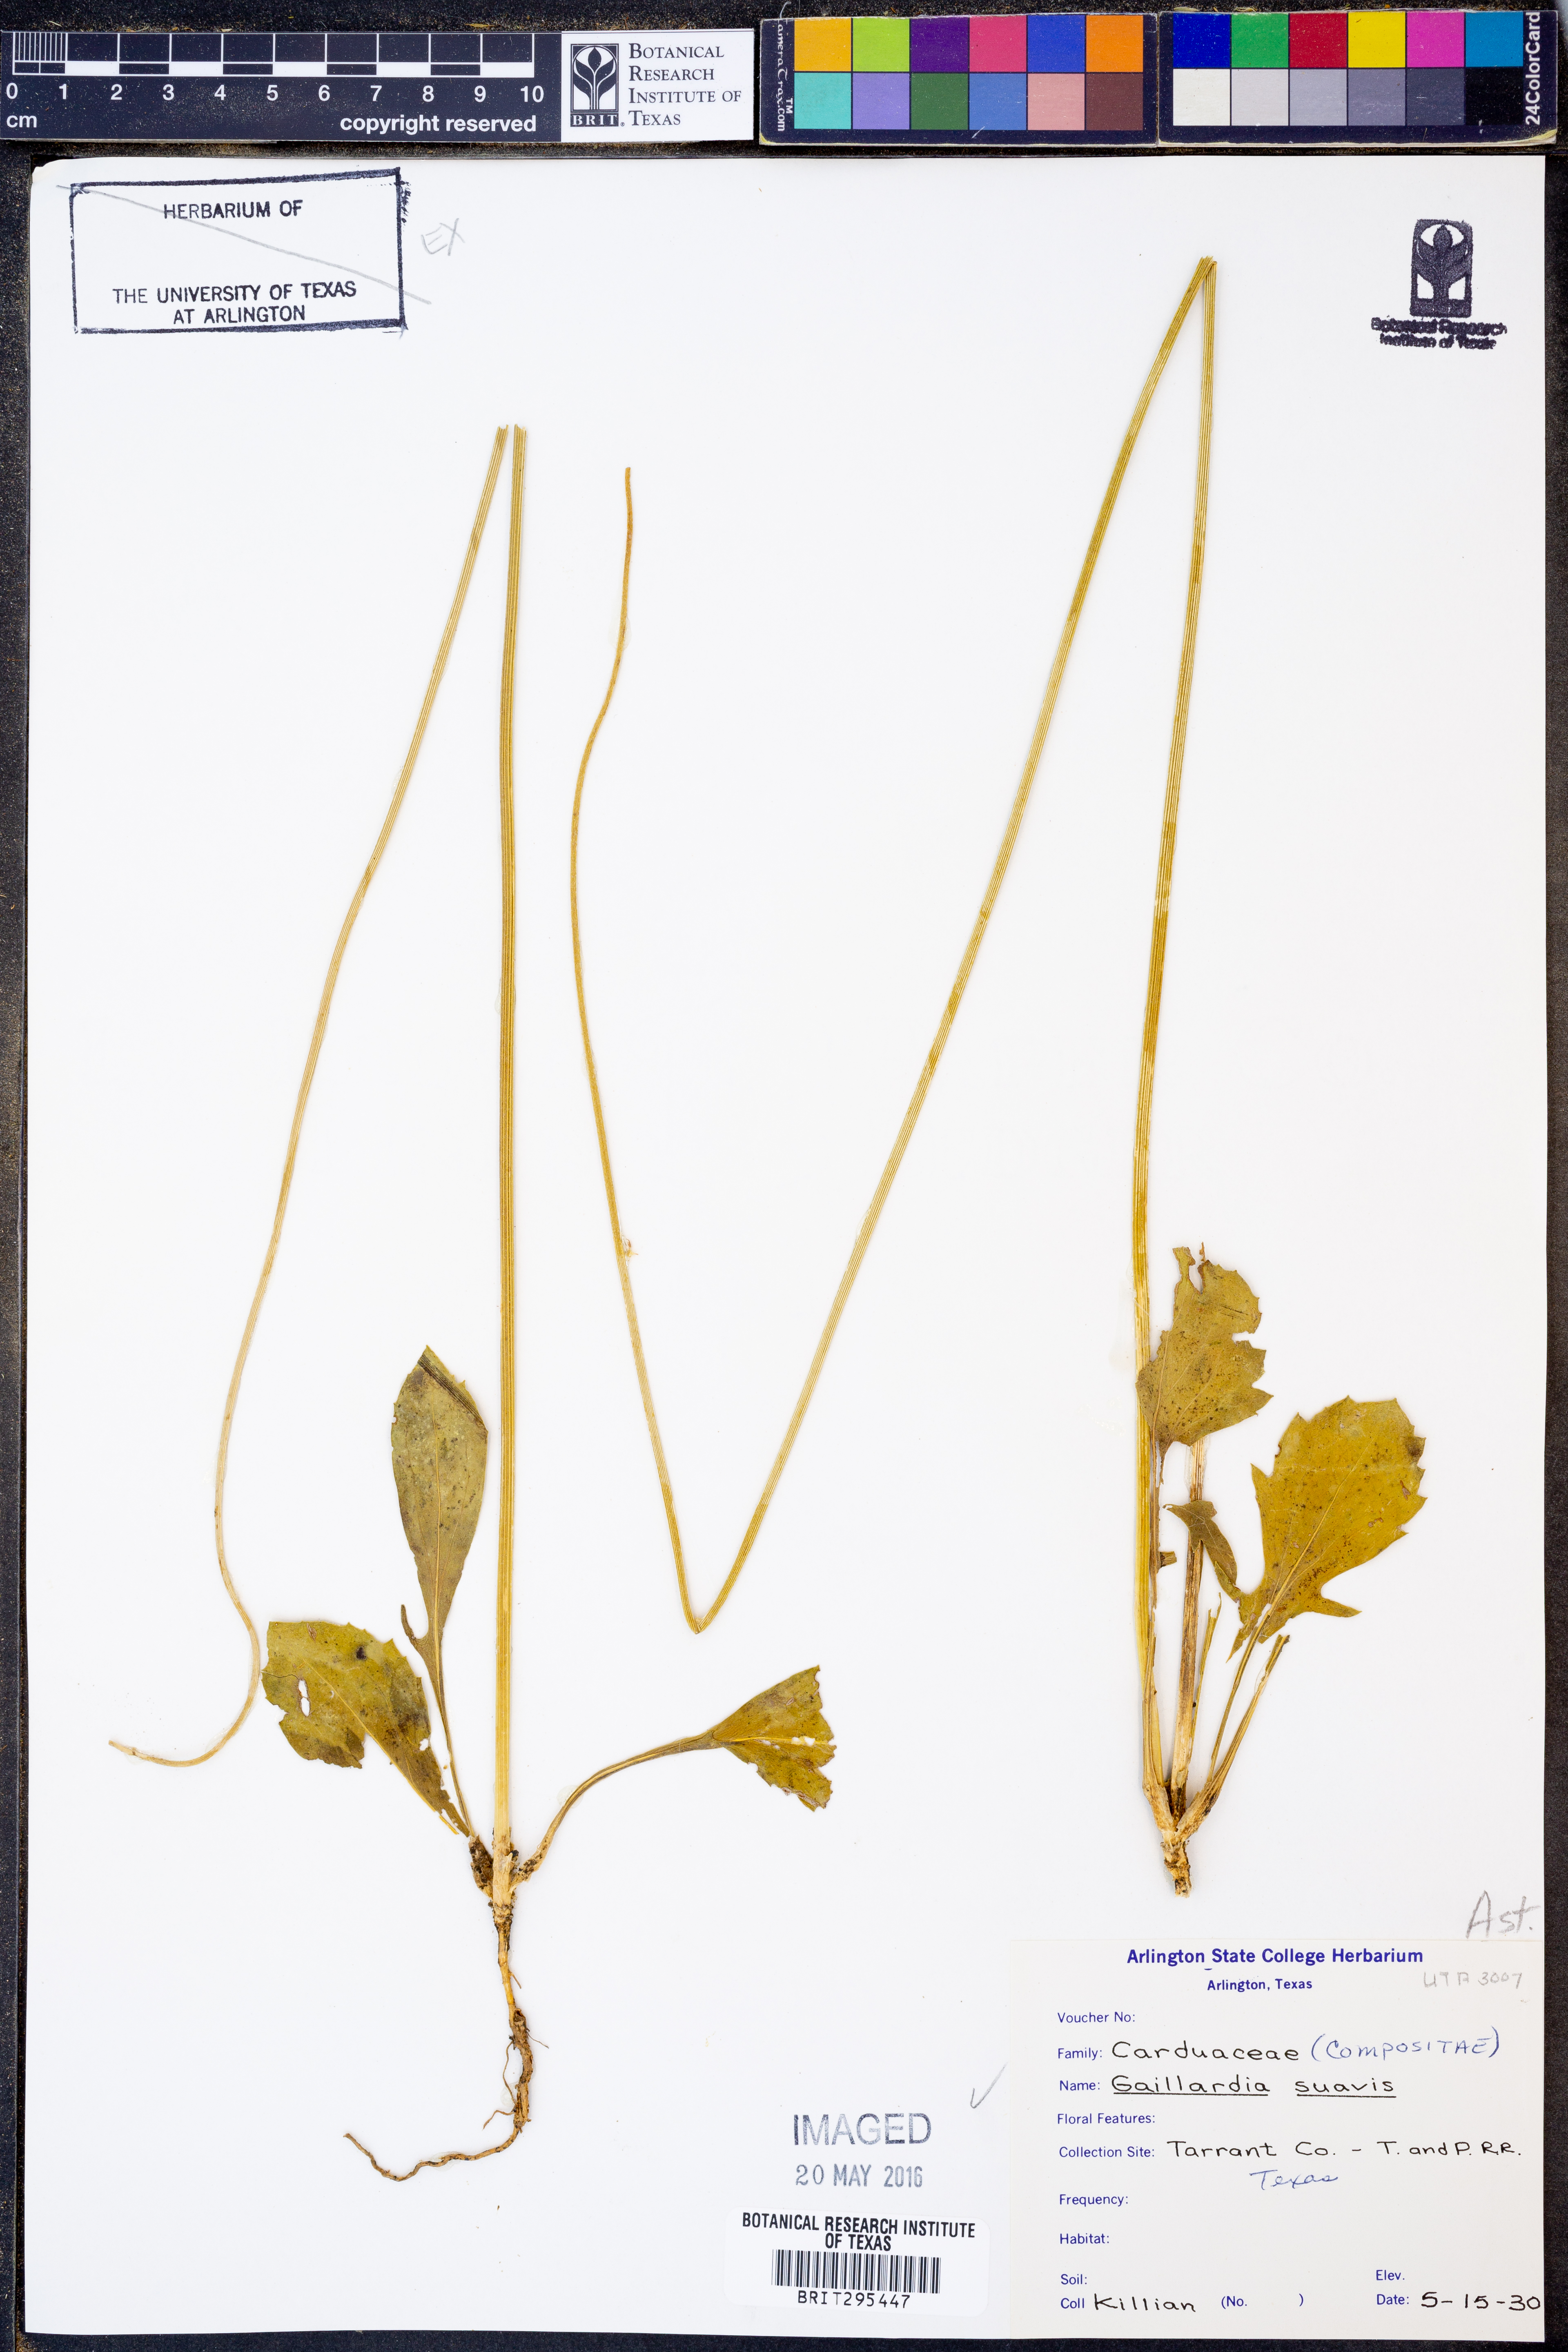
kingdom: Plantae
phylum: Tracheophyta
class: Magnoliopsida
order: Asterales
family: Asteraceae
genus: Gaillardia
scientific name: Gaillardia suavis
